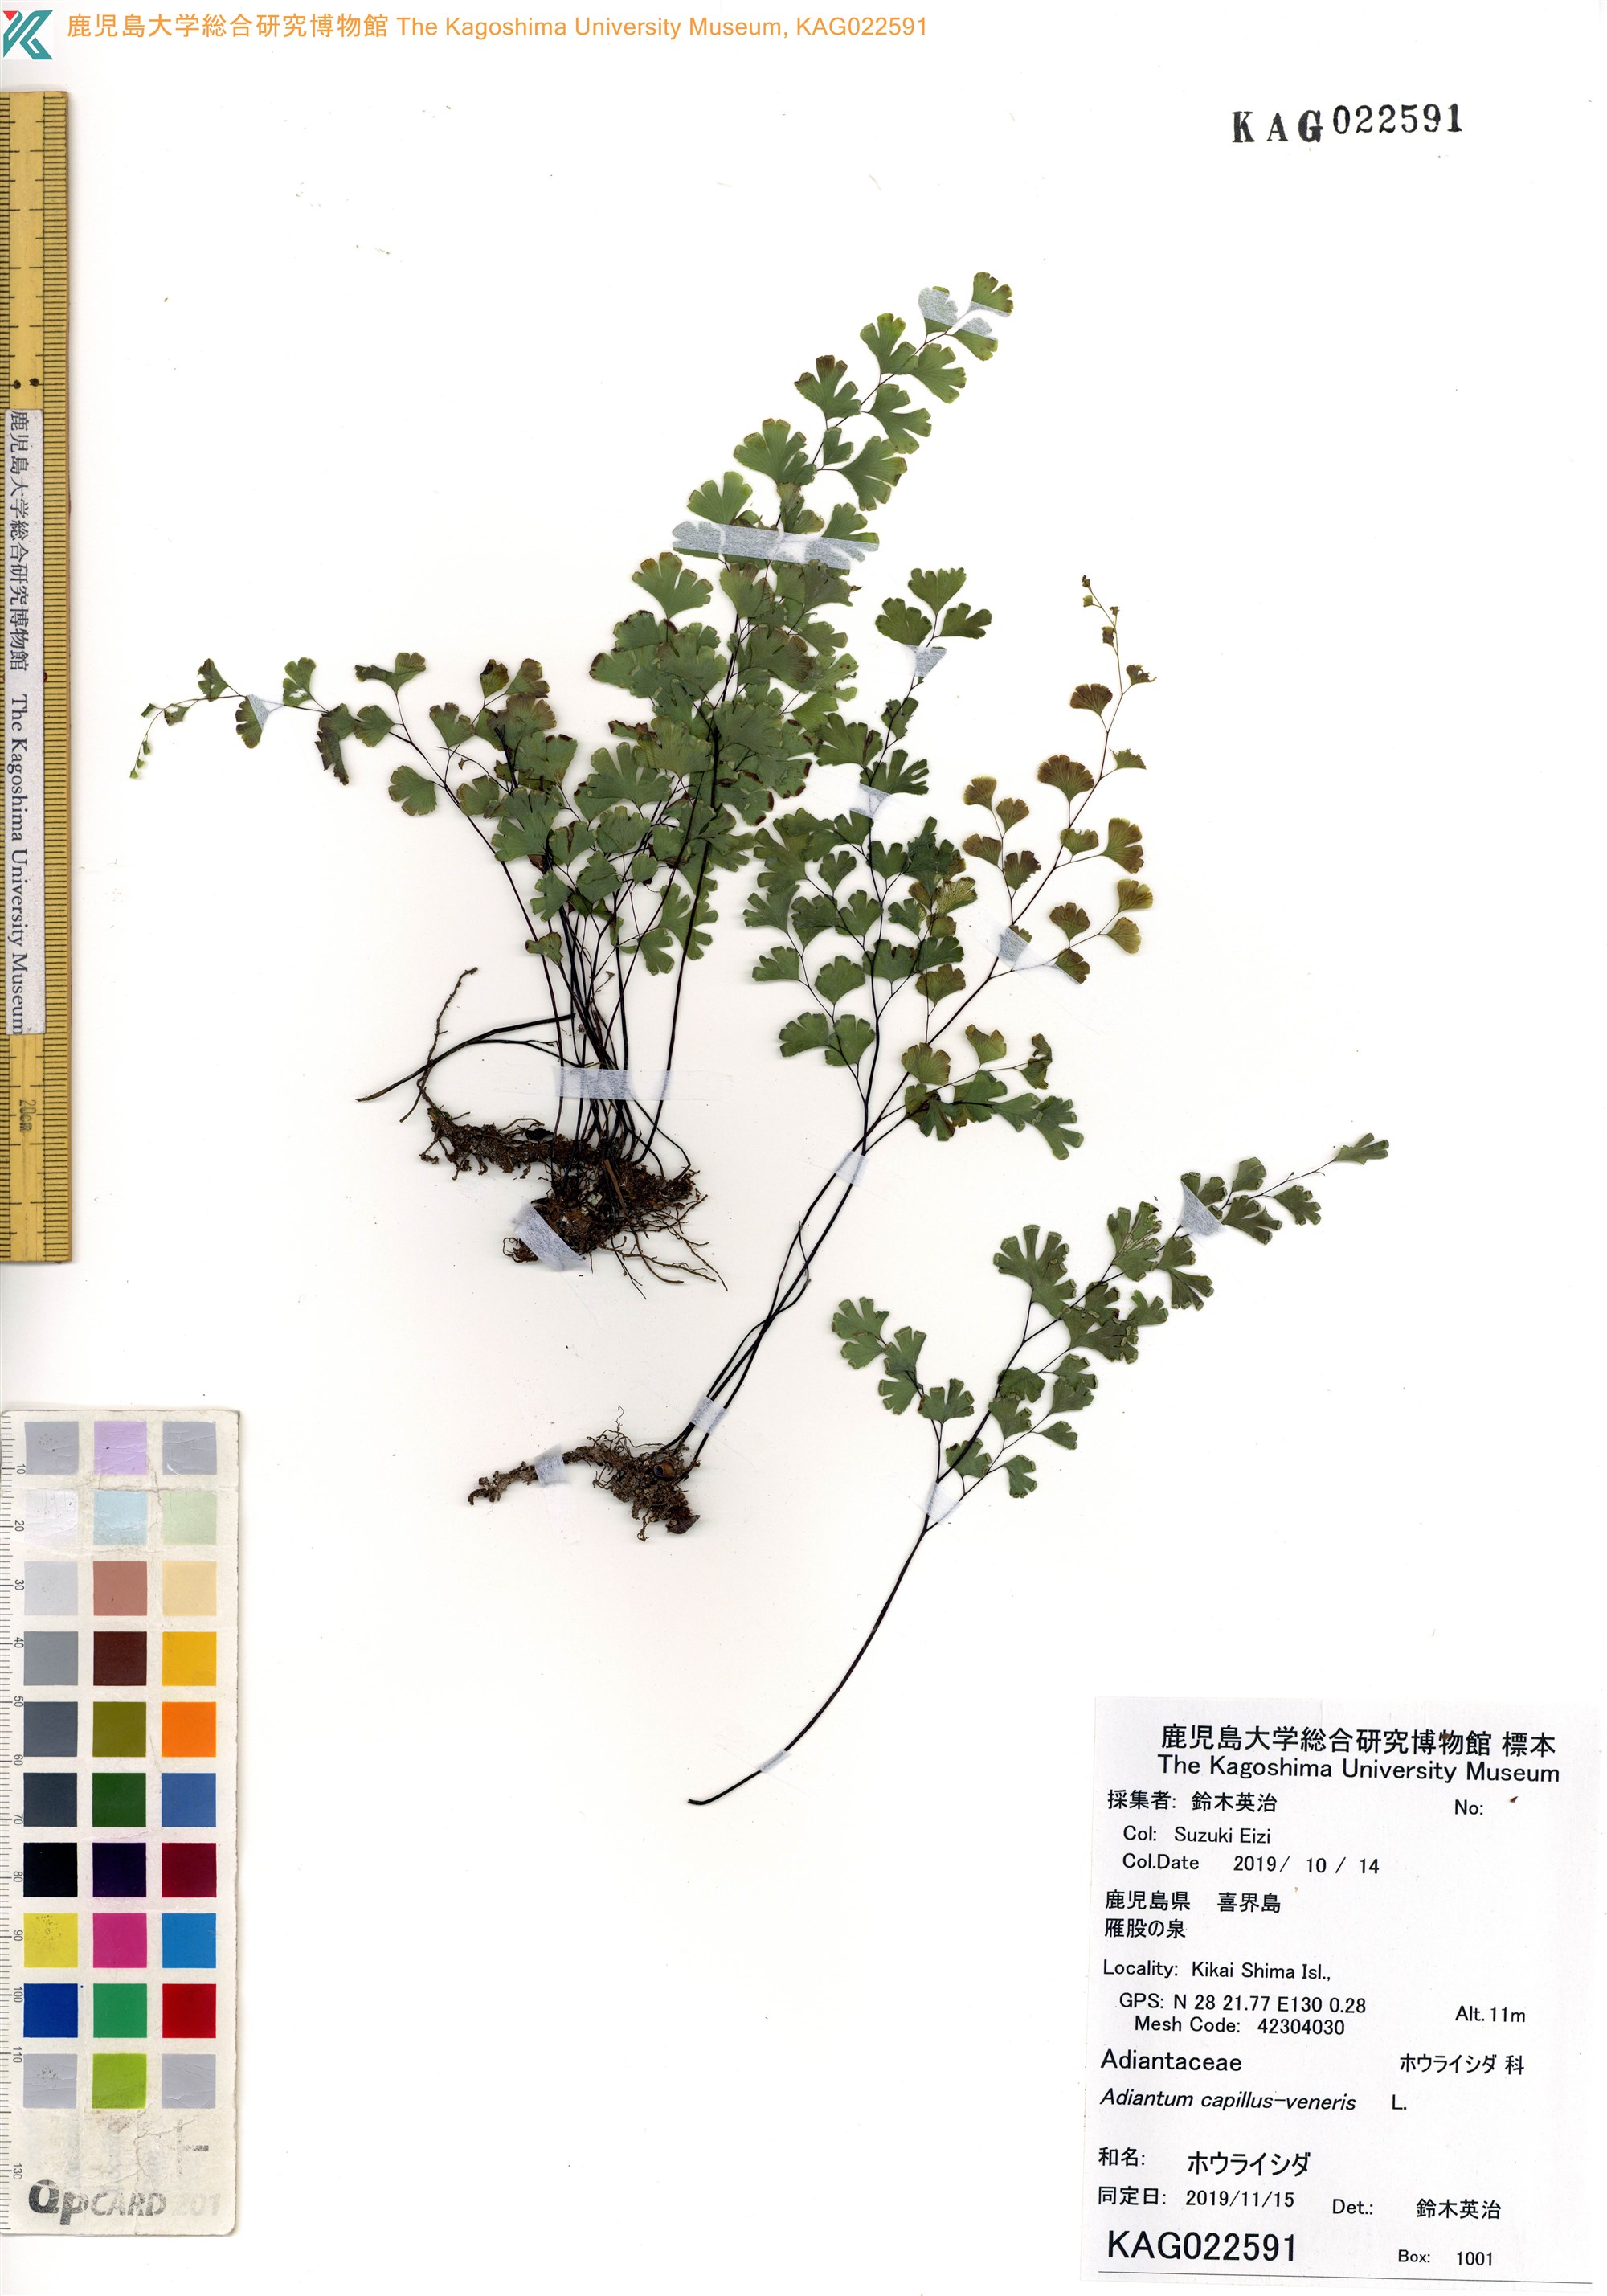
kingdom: Plantae
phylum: Tracheophyta
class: Polypodiopsida
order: Polypodiales
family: Pteridaceae
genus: Adiantum
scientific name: Adiantum capillus-veneris
